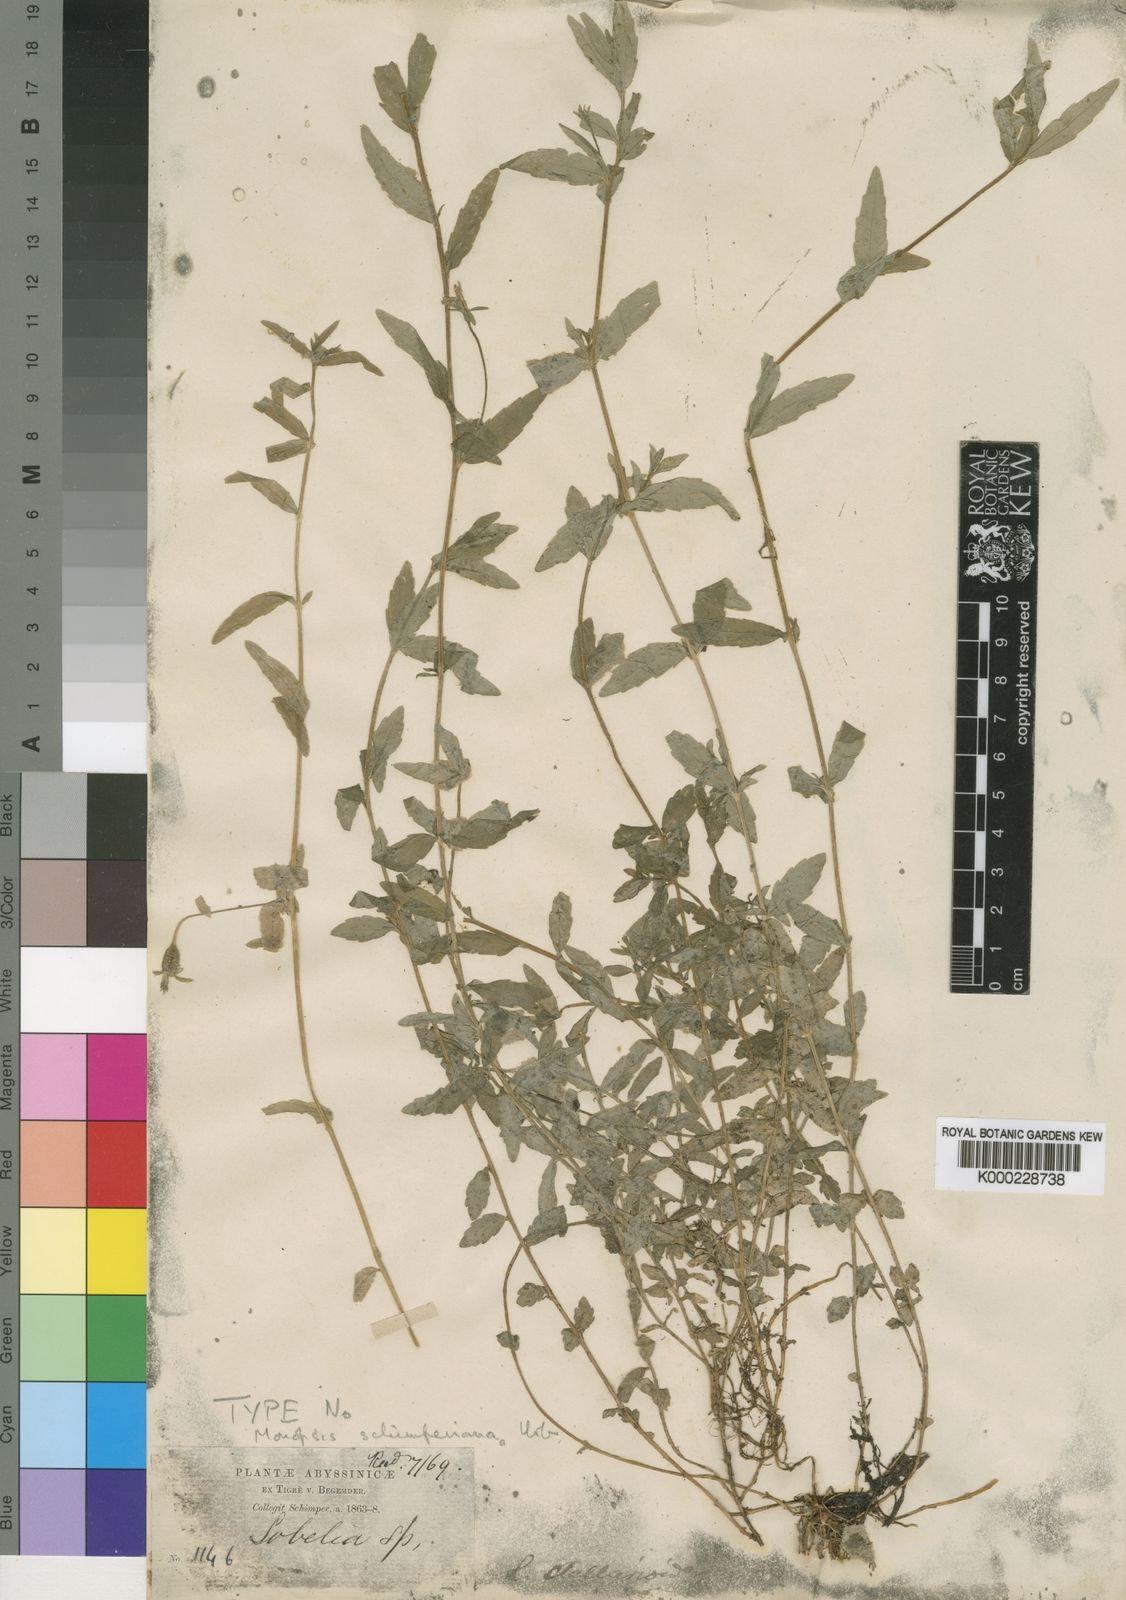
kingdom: Plantae
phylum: Tracheophyta
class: Magnoliopsida
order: Asterales
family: Campanulaceae
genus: Monopsis
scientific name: Monopsis stellarioides
